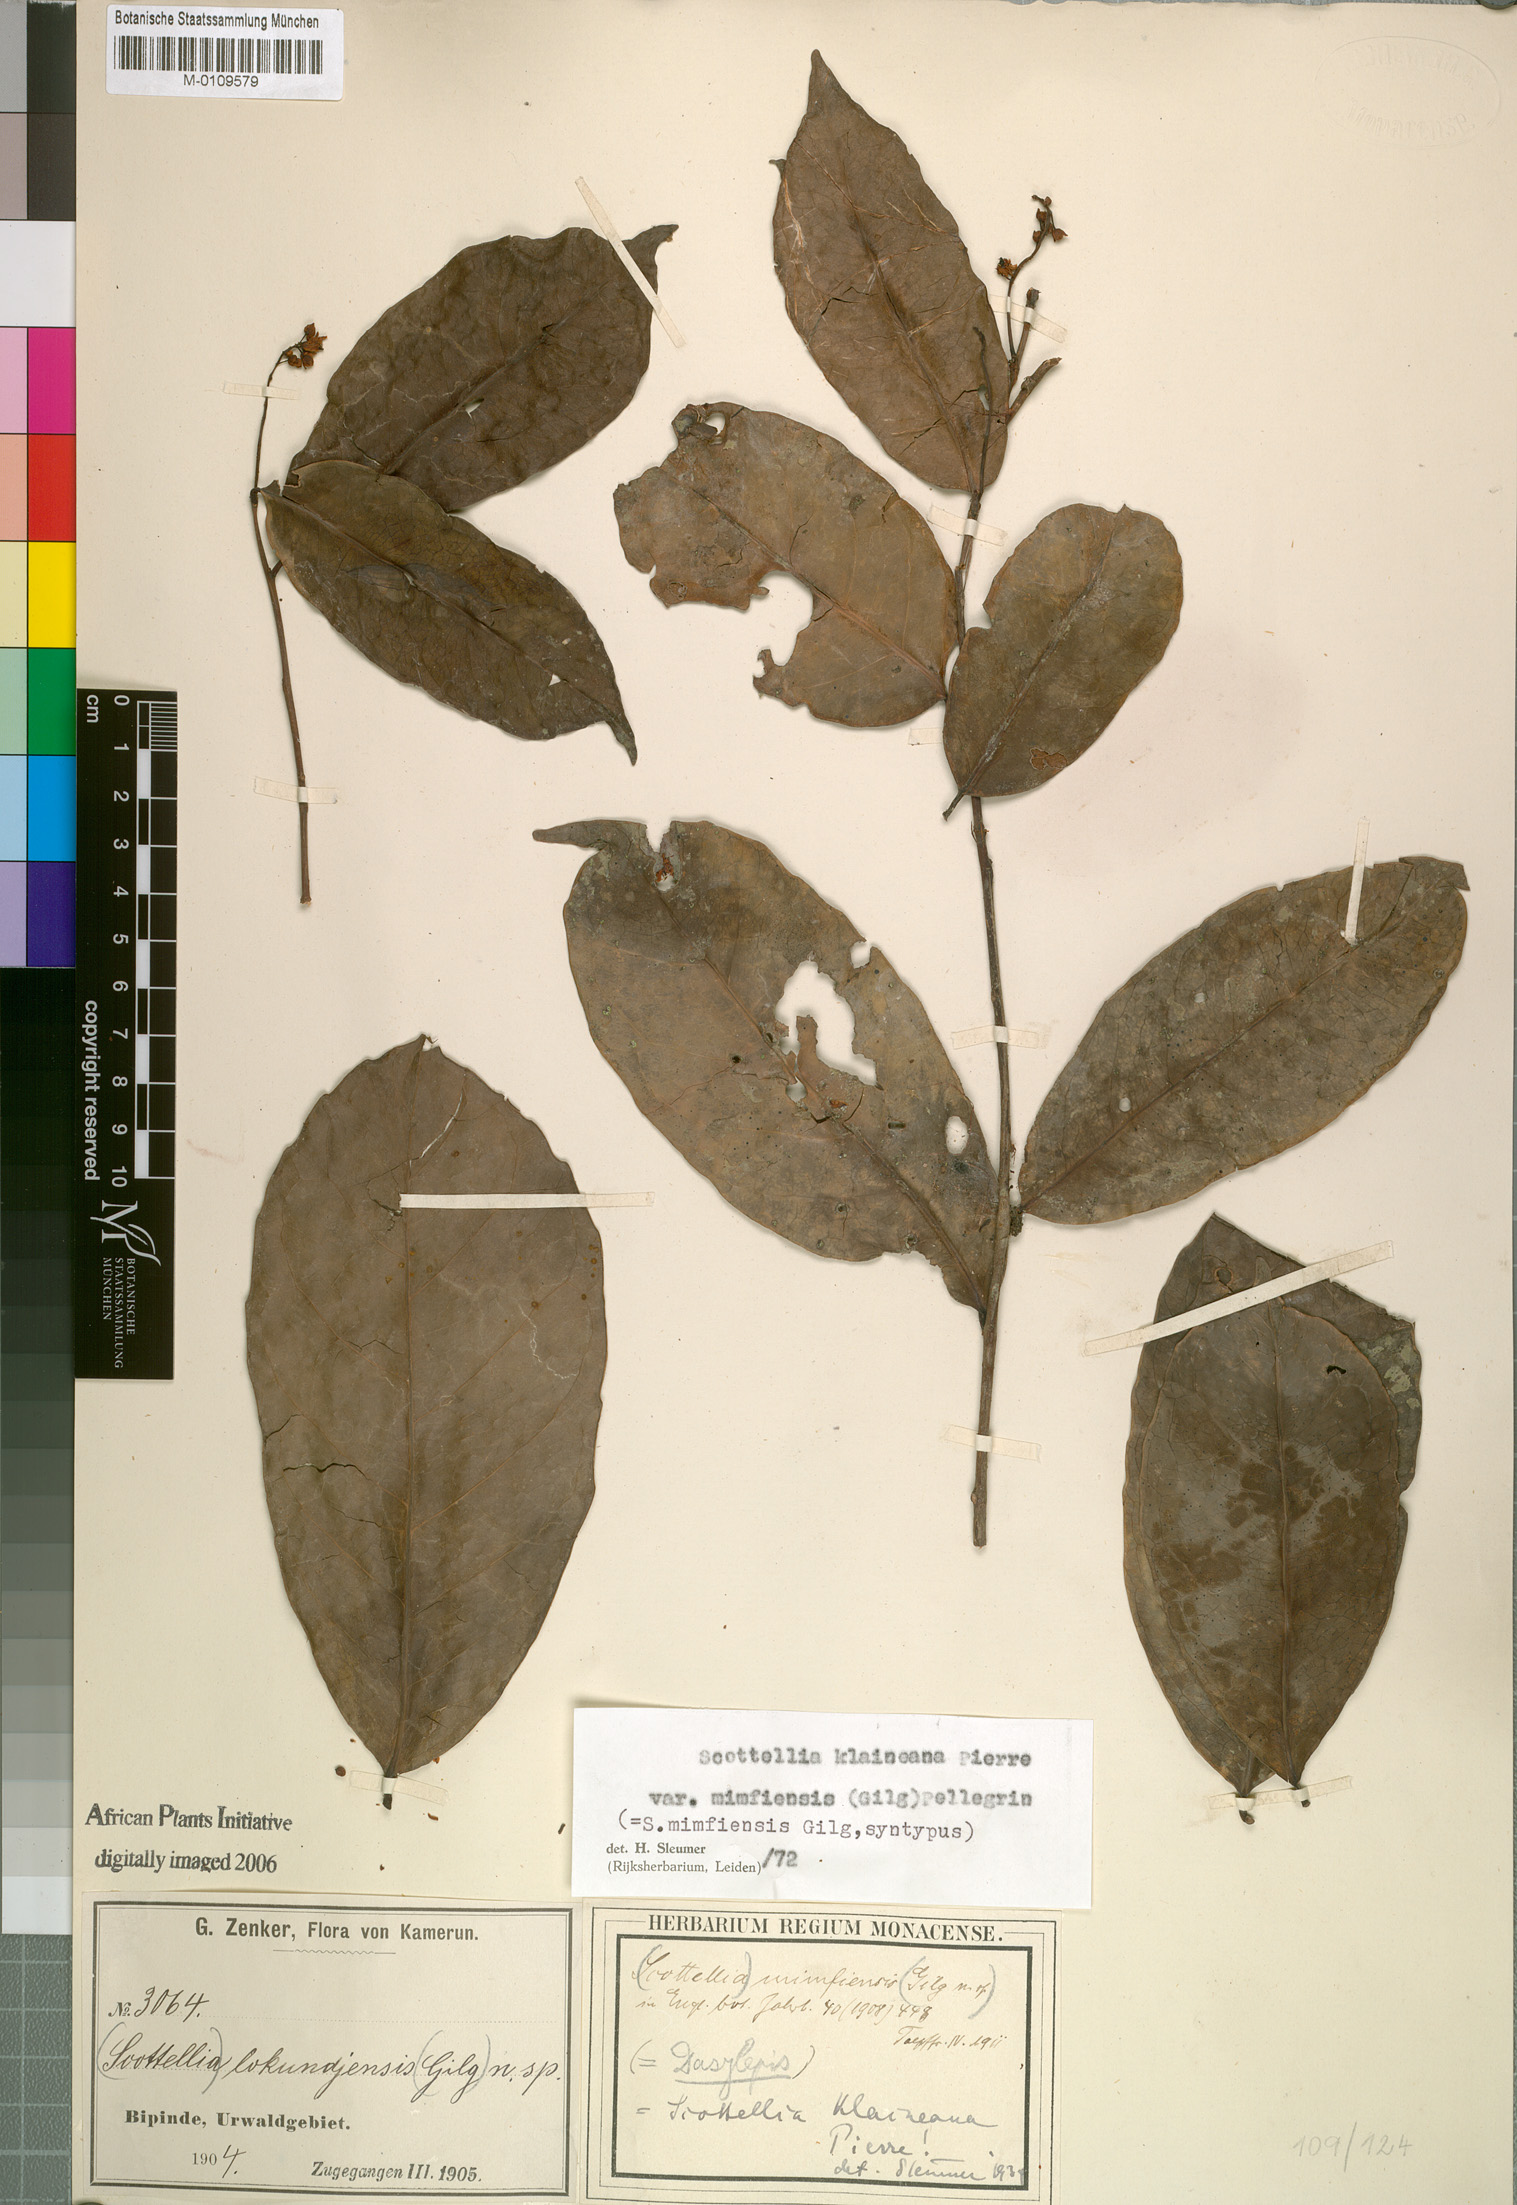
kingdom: Plantae
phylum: Tracheophyta
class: Magnoliopsida
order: Malpighiales
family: Achariaceae
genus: Scottellia
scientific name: Scottellia klaineana
